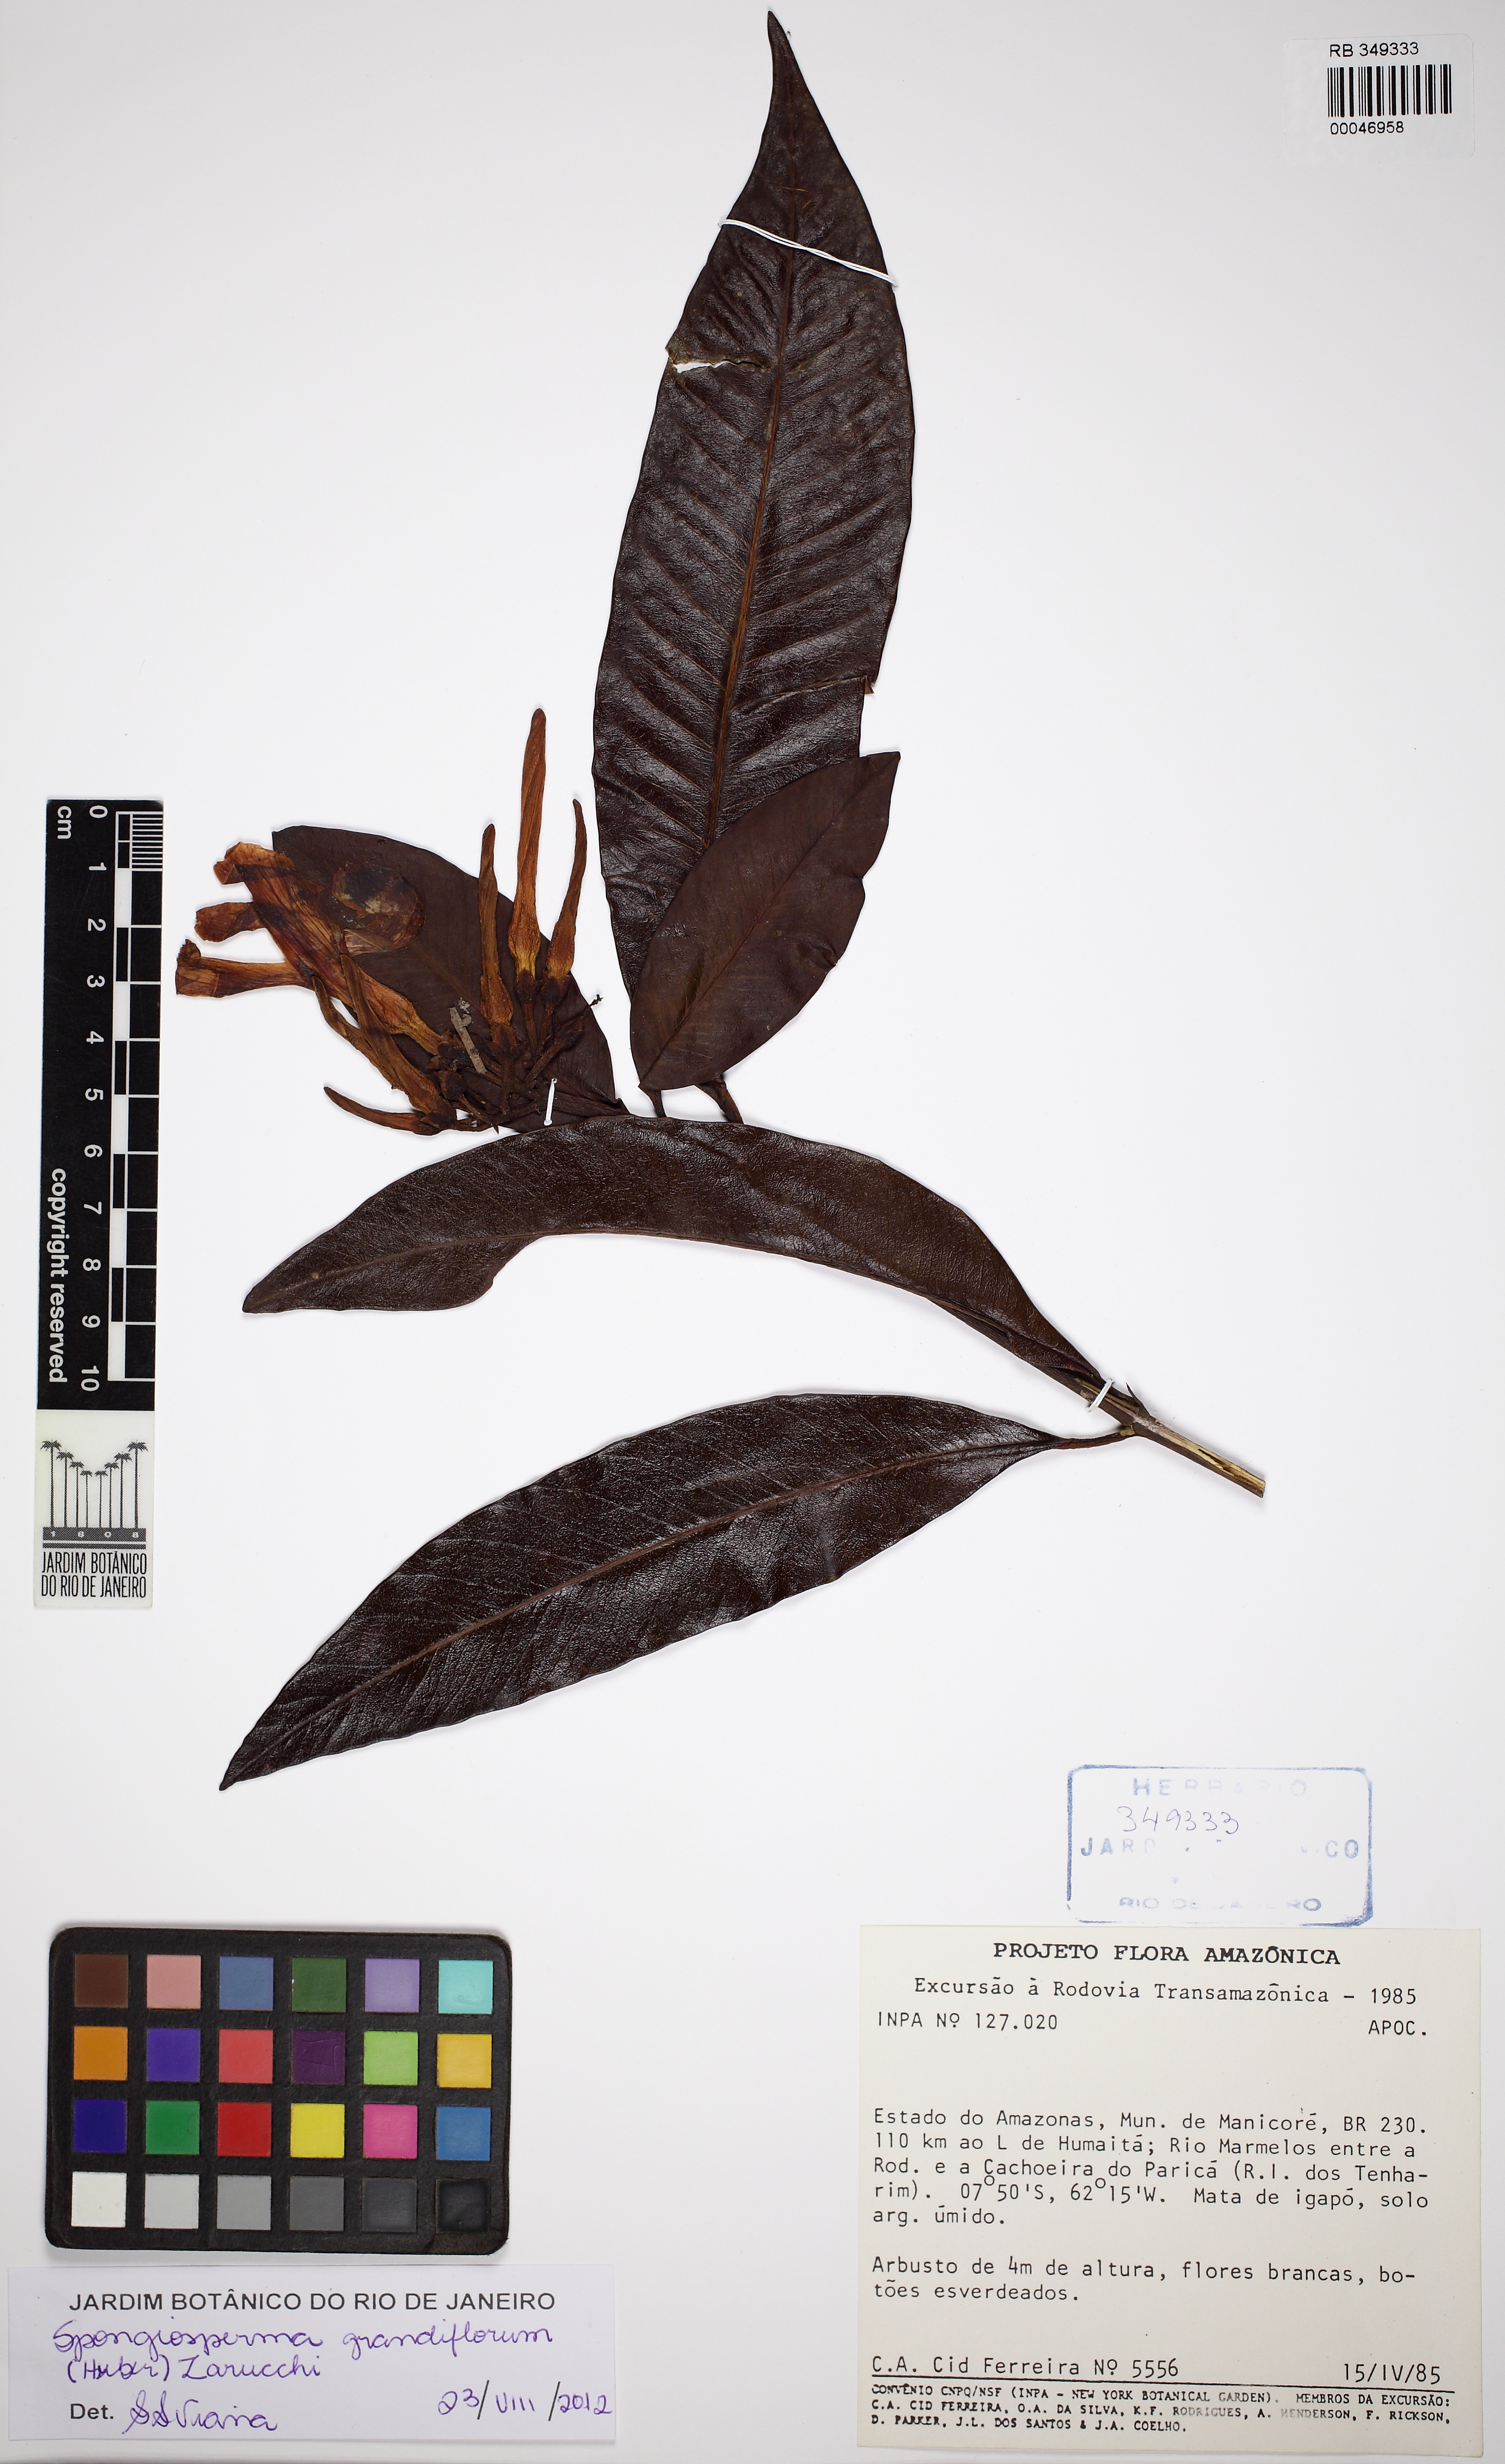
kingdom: Plantae
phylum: Tracheophyta
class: Magnoliopsida
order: Gentianales
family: Apocynaceae
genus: Spongiosperma
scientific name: Spongiosperma grandiflorum
